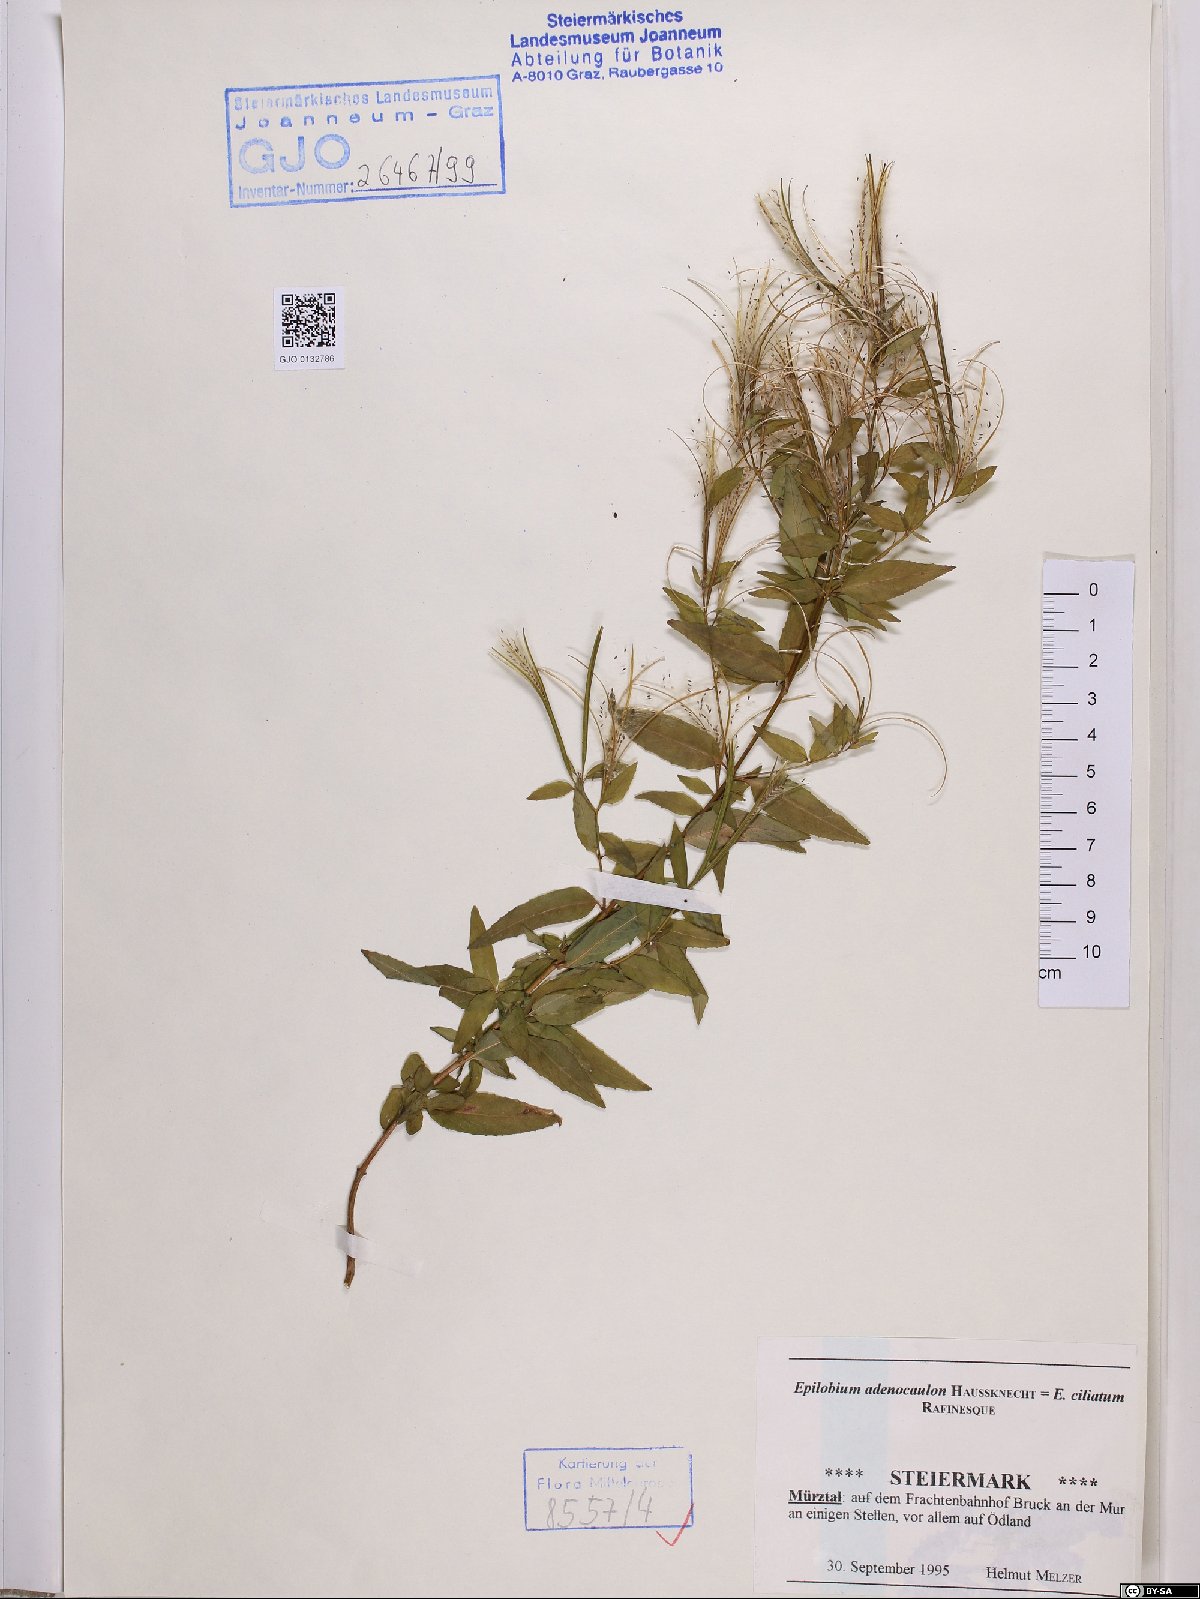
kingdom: Plantae
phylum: Tracheophyta
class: Magnoliopsida
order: Myrtales
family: Onagraceae
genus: Epilobium
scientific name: Epilobium ciliatum
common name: American willowherb
